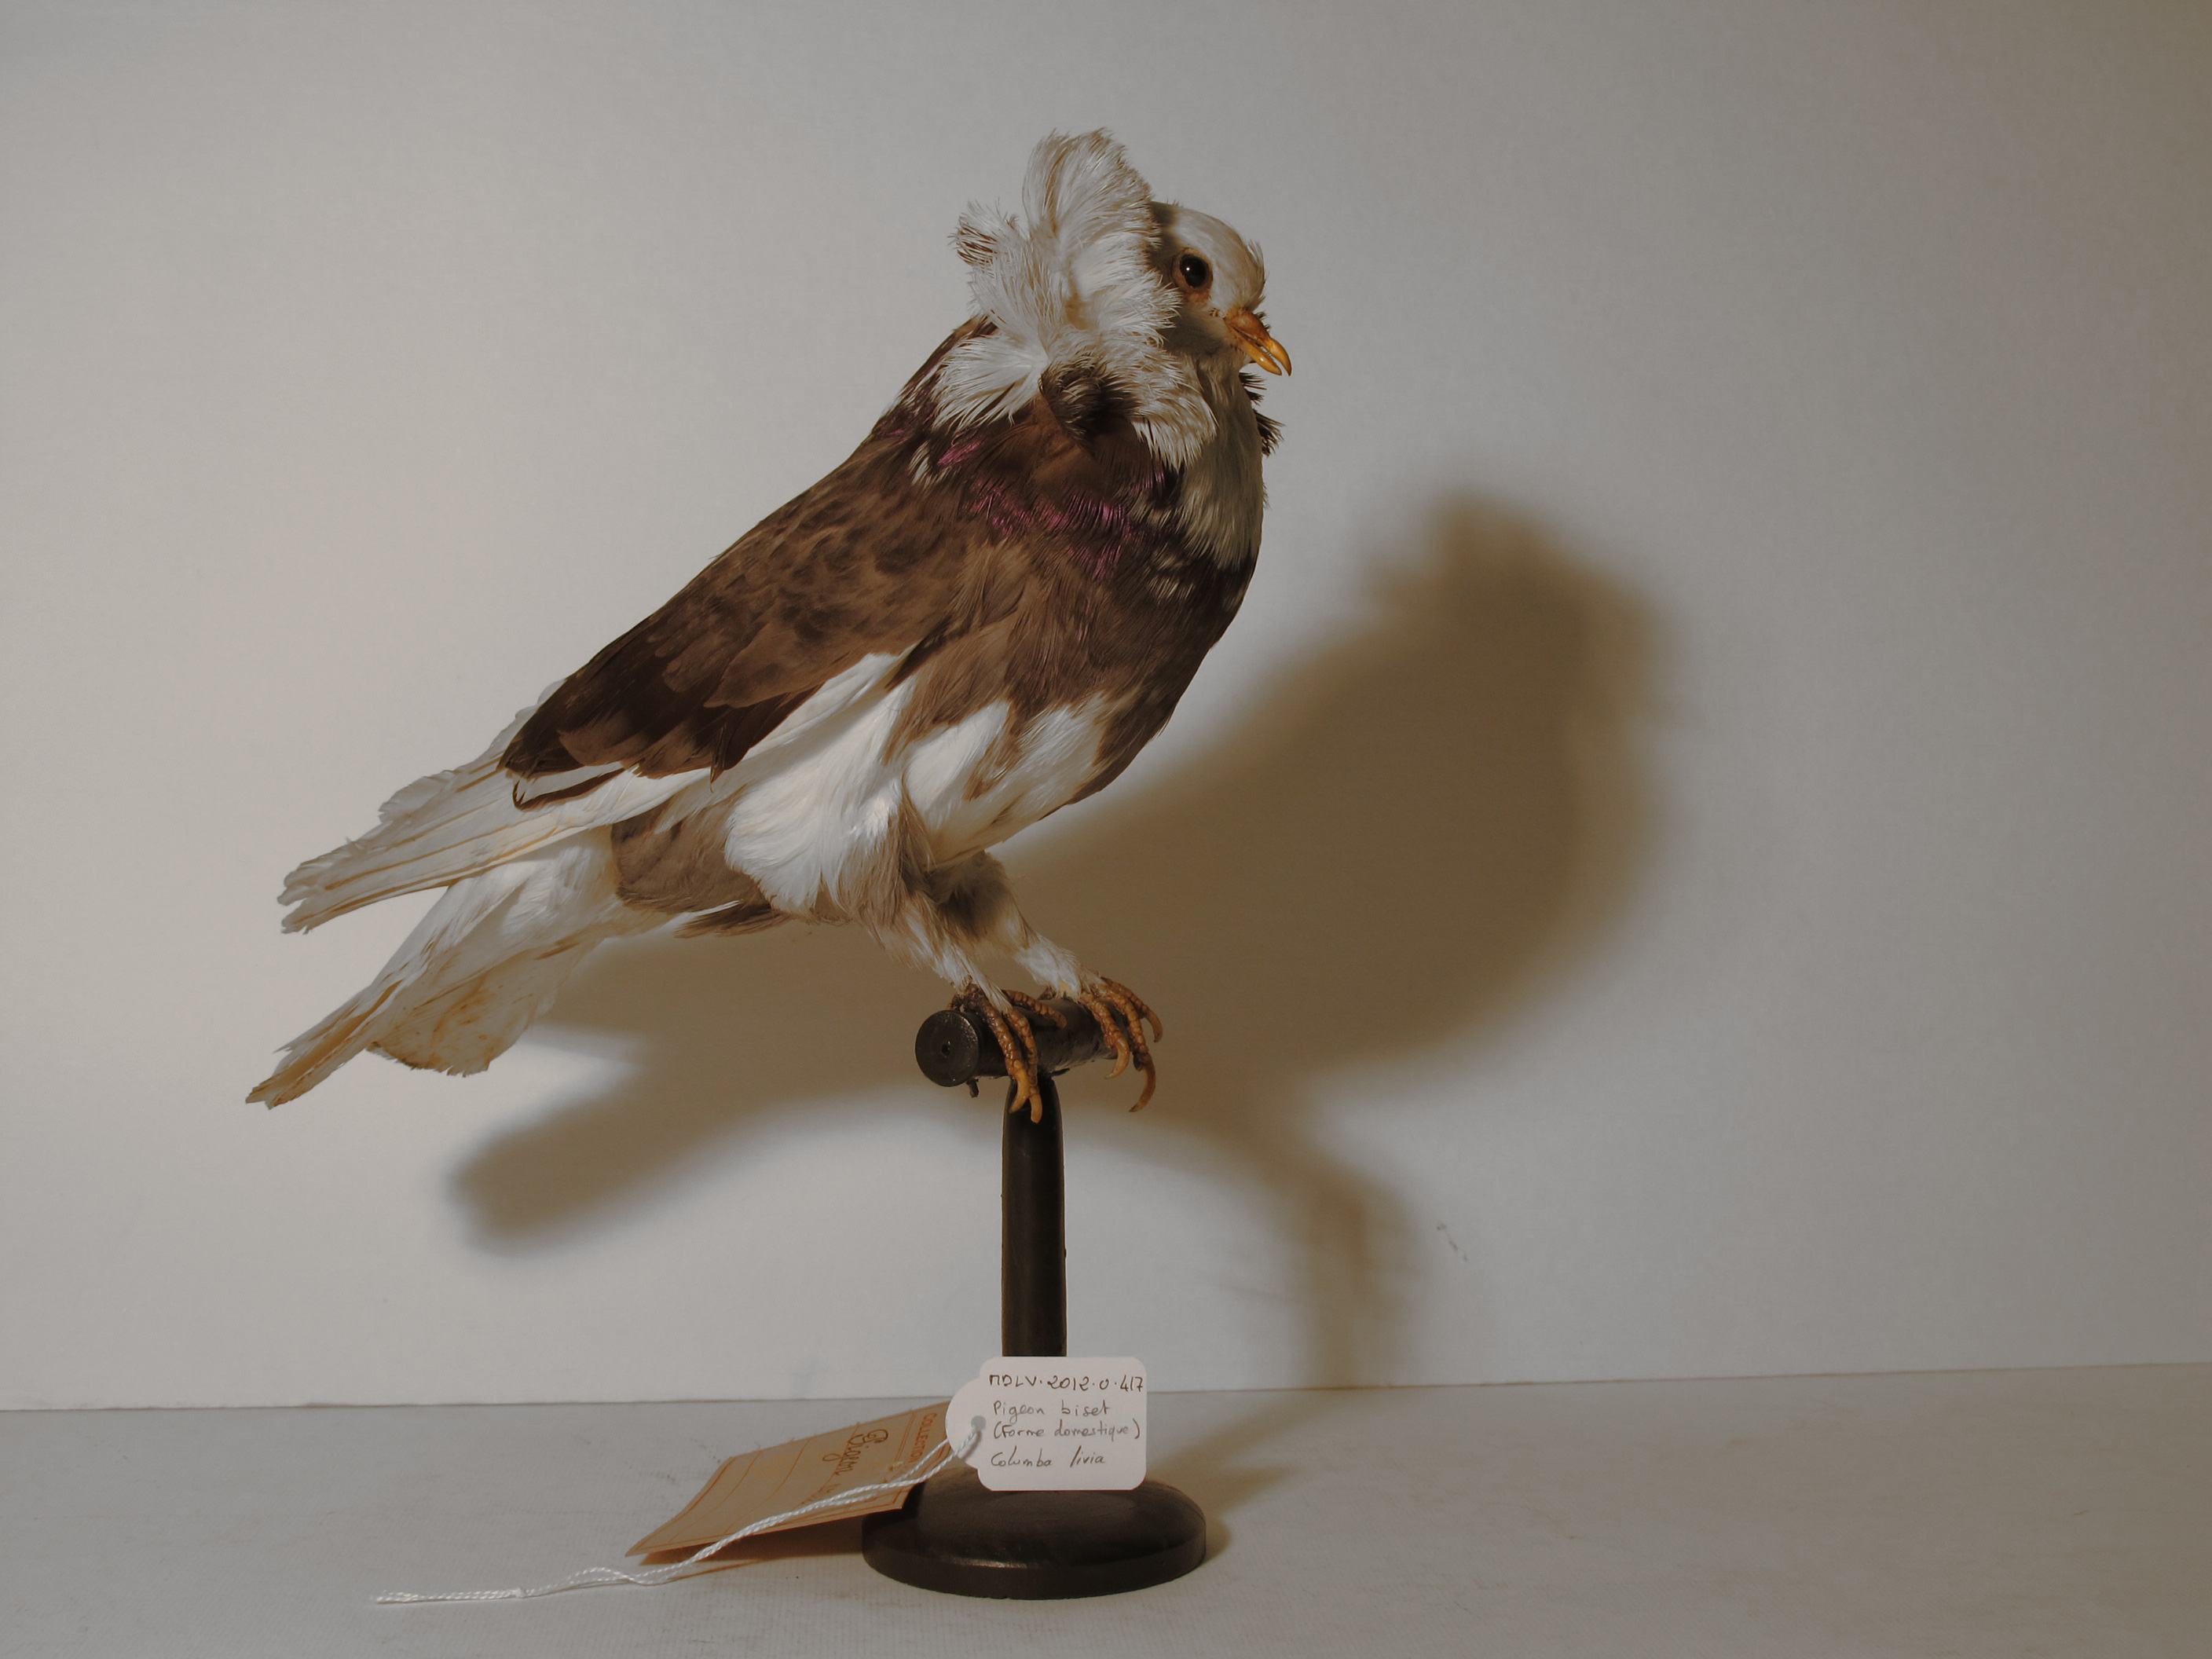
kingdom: Animalia
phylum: Chordata
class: Aves
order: Columbiformes
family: Columbidae
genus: Columba
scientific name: Columba livia
